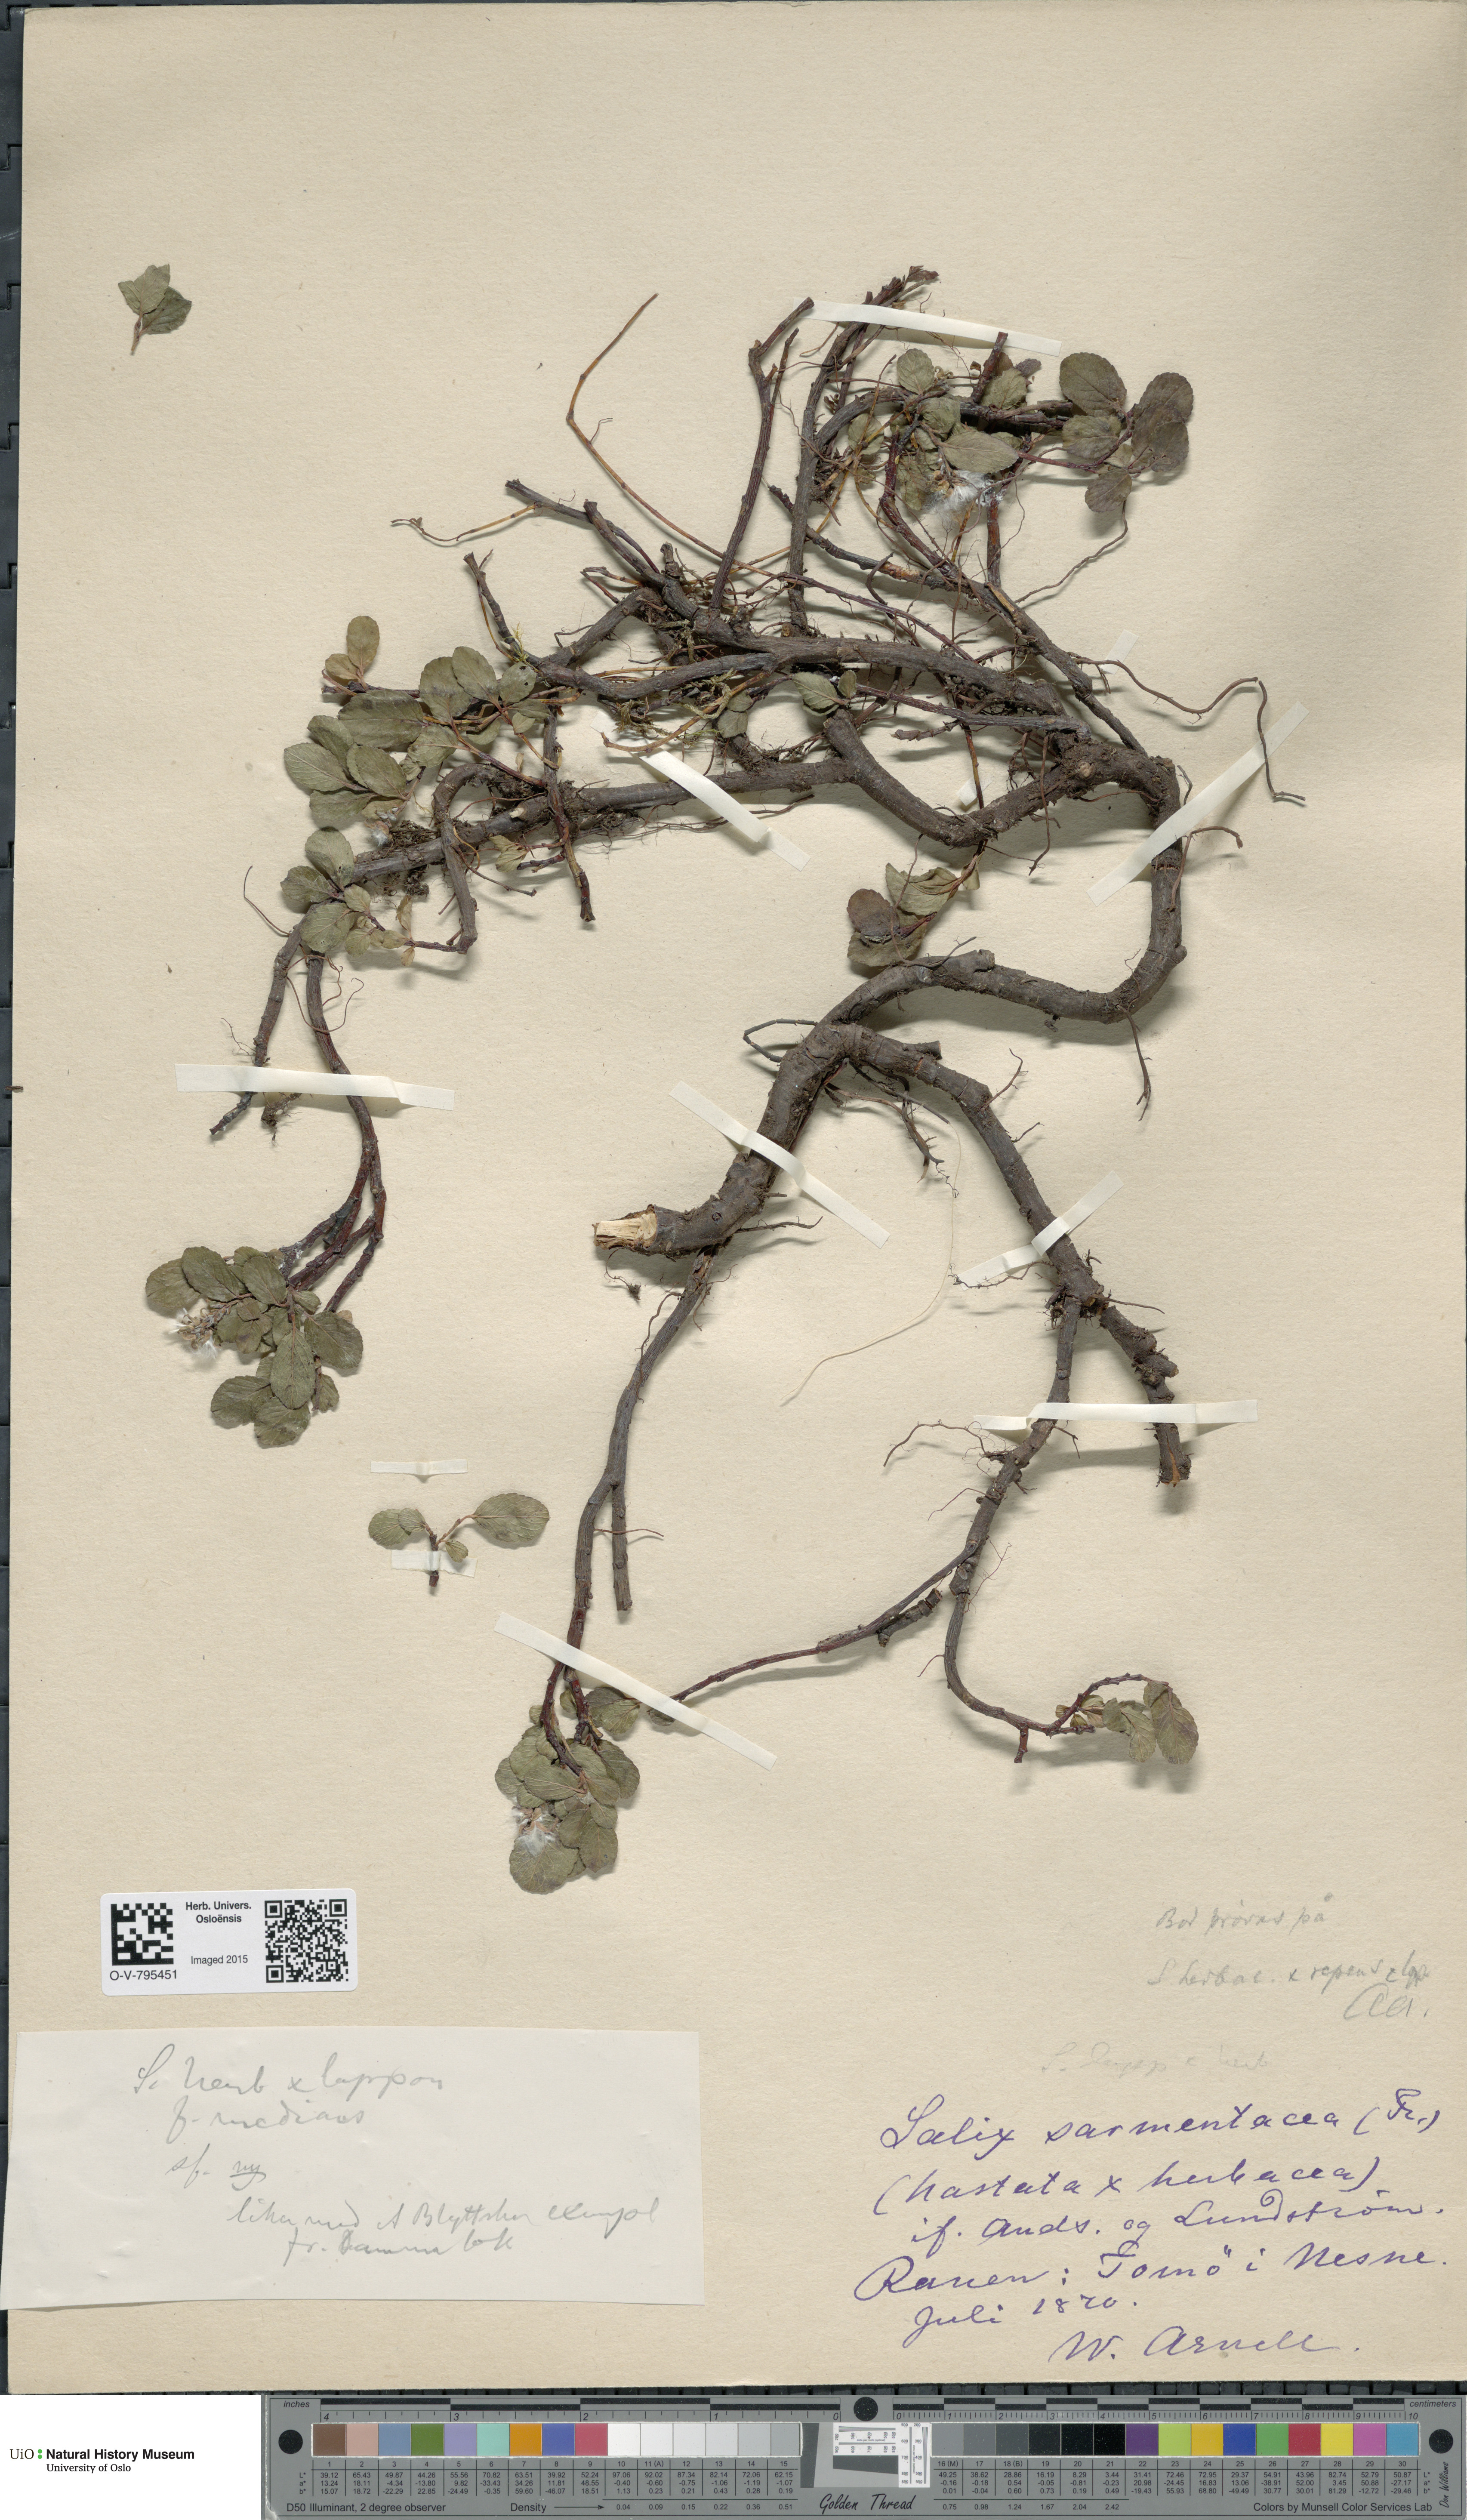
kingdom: Plantae
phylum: Tracheophyta
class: Magnoliopsida
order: Malpighiales
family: Salicaceae
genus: Salix
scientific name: Salix
